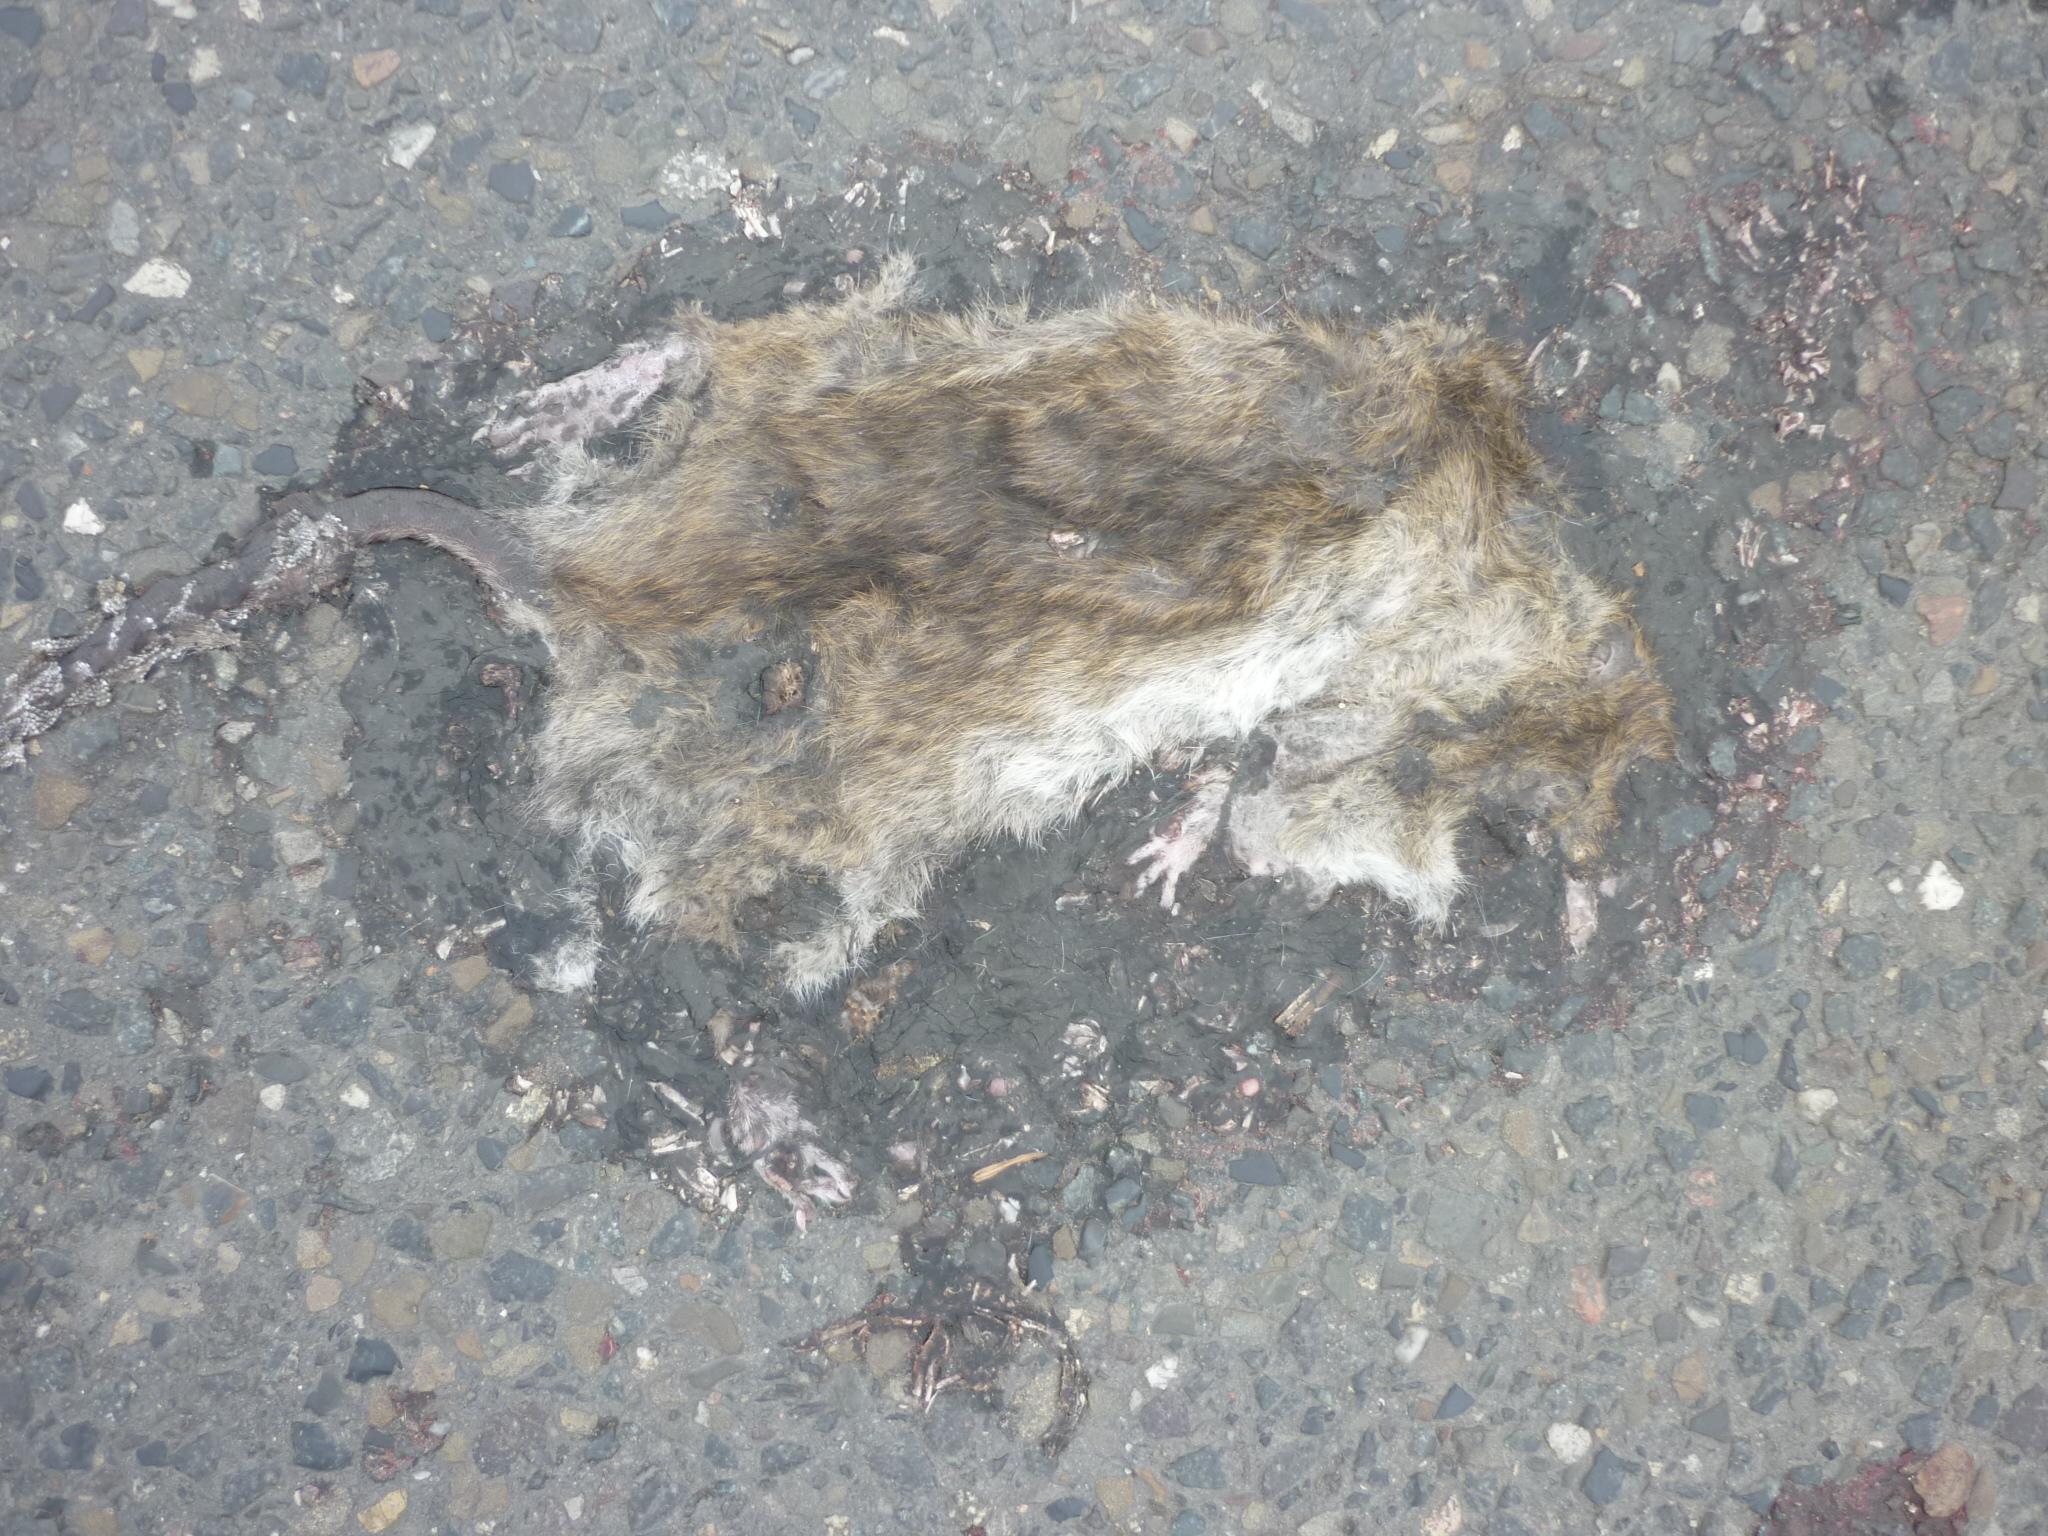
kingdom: Animalia
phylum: Chordata
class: Mammalia
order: Rodentia
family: Muridae
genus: Rattus
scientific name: Rattus norvegicus
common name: Brown rat
